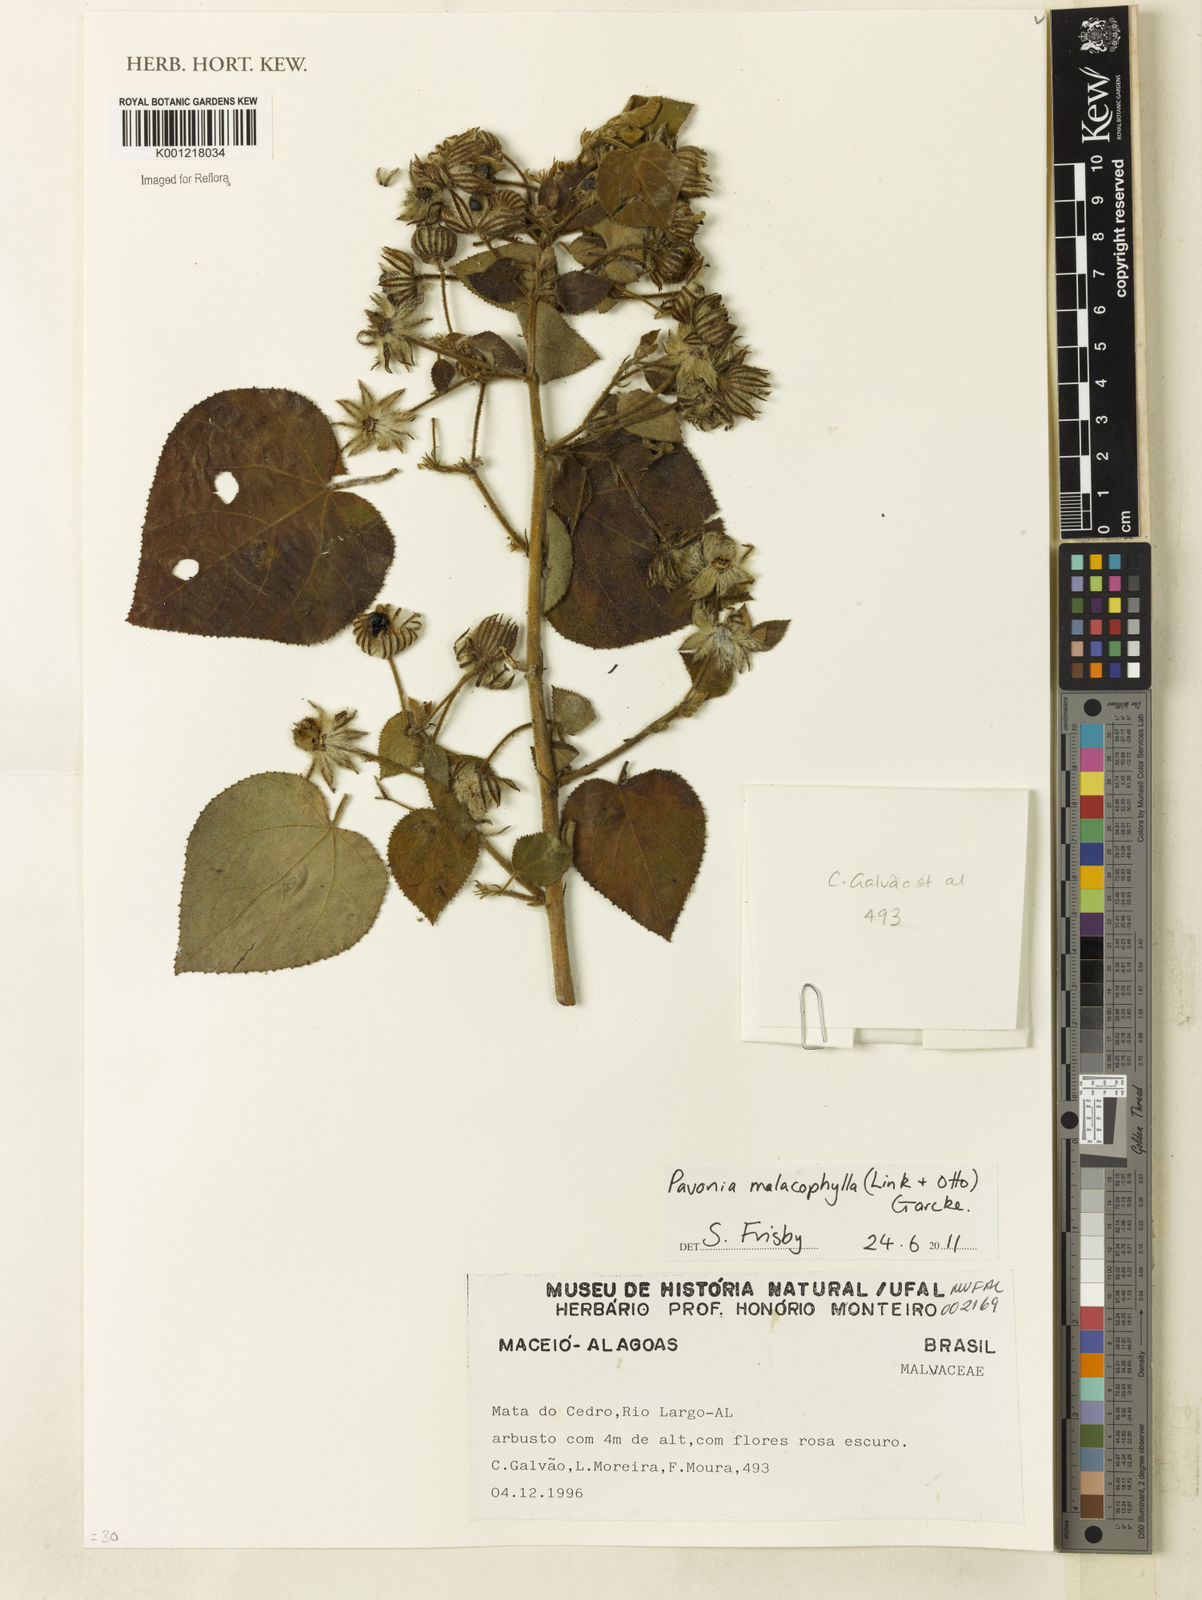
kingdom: Plantae
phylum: Tracheophyta
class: Magnoliopsida
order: Malvales
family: Malvaceae
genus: Pavonia
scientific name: Pavonia malacophylla
